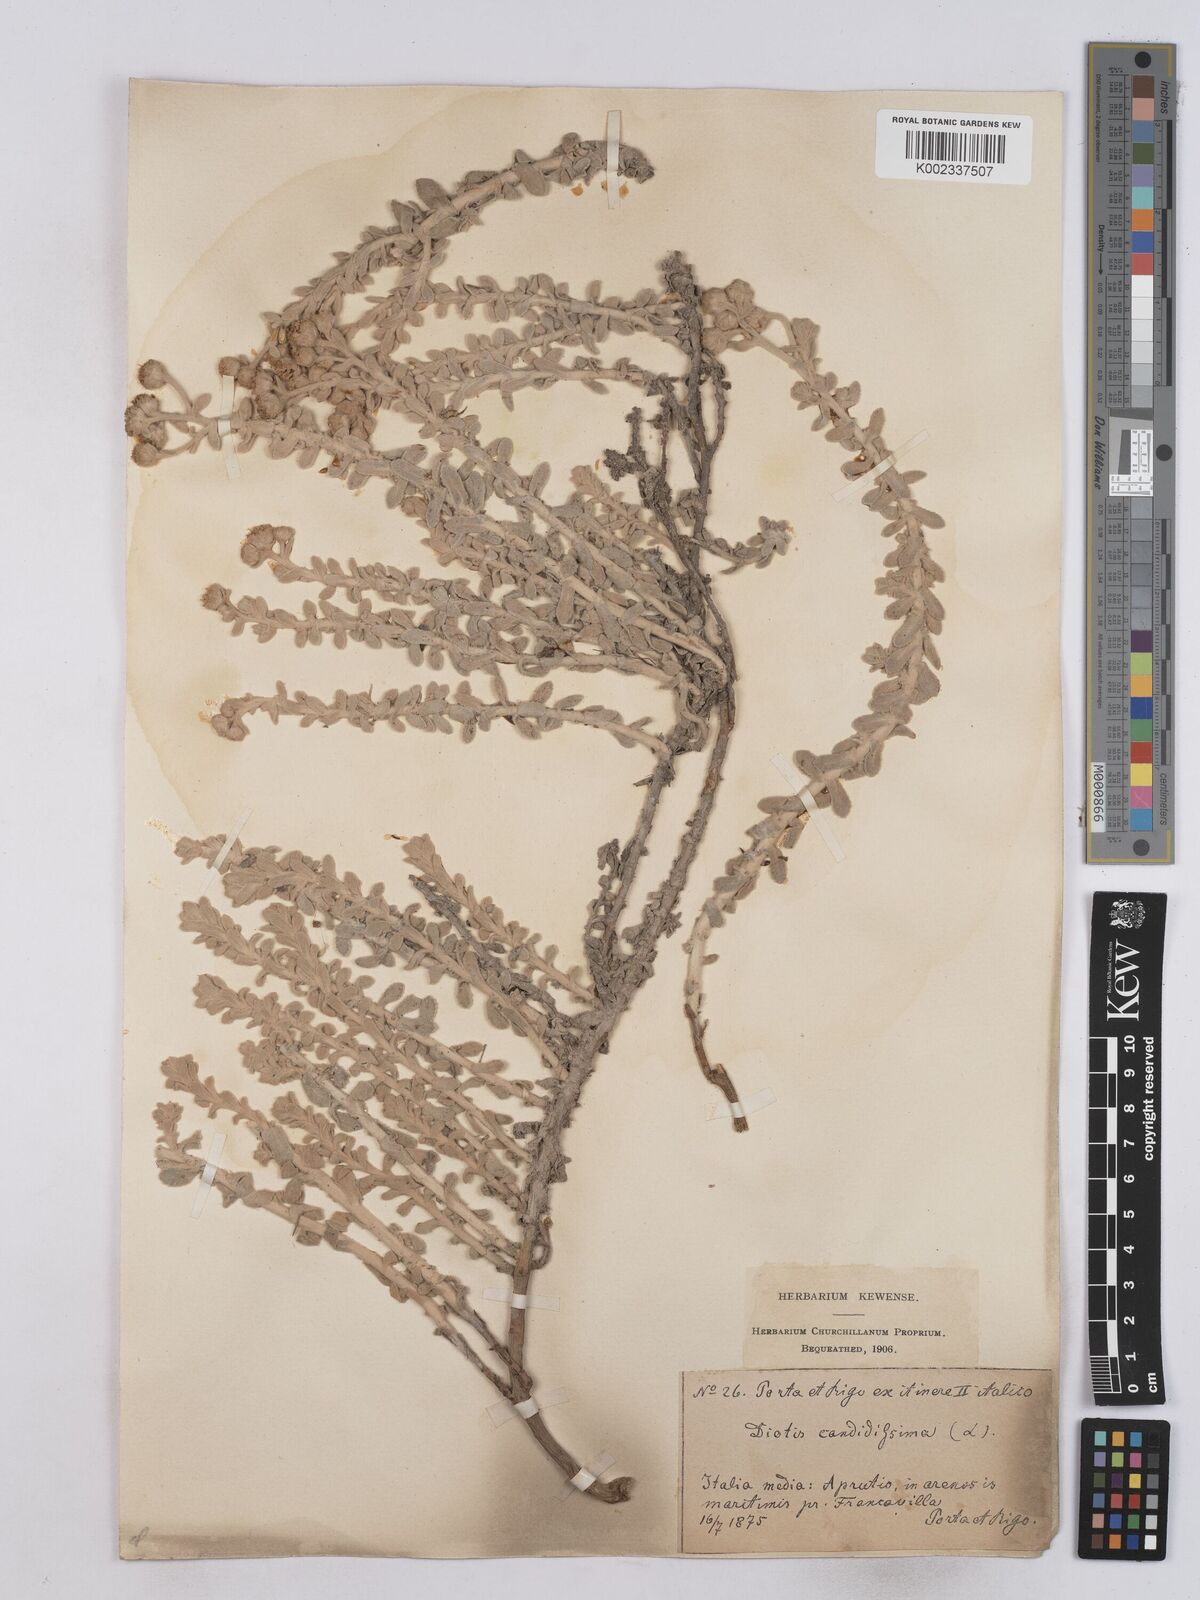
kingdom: Plantae
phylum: Tracheophyta
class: Magnoliopsida
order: Asterales
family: Asteraceae
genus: Achillea
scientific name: Achillea maritima
